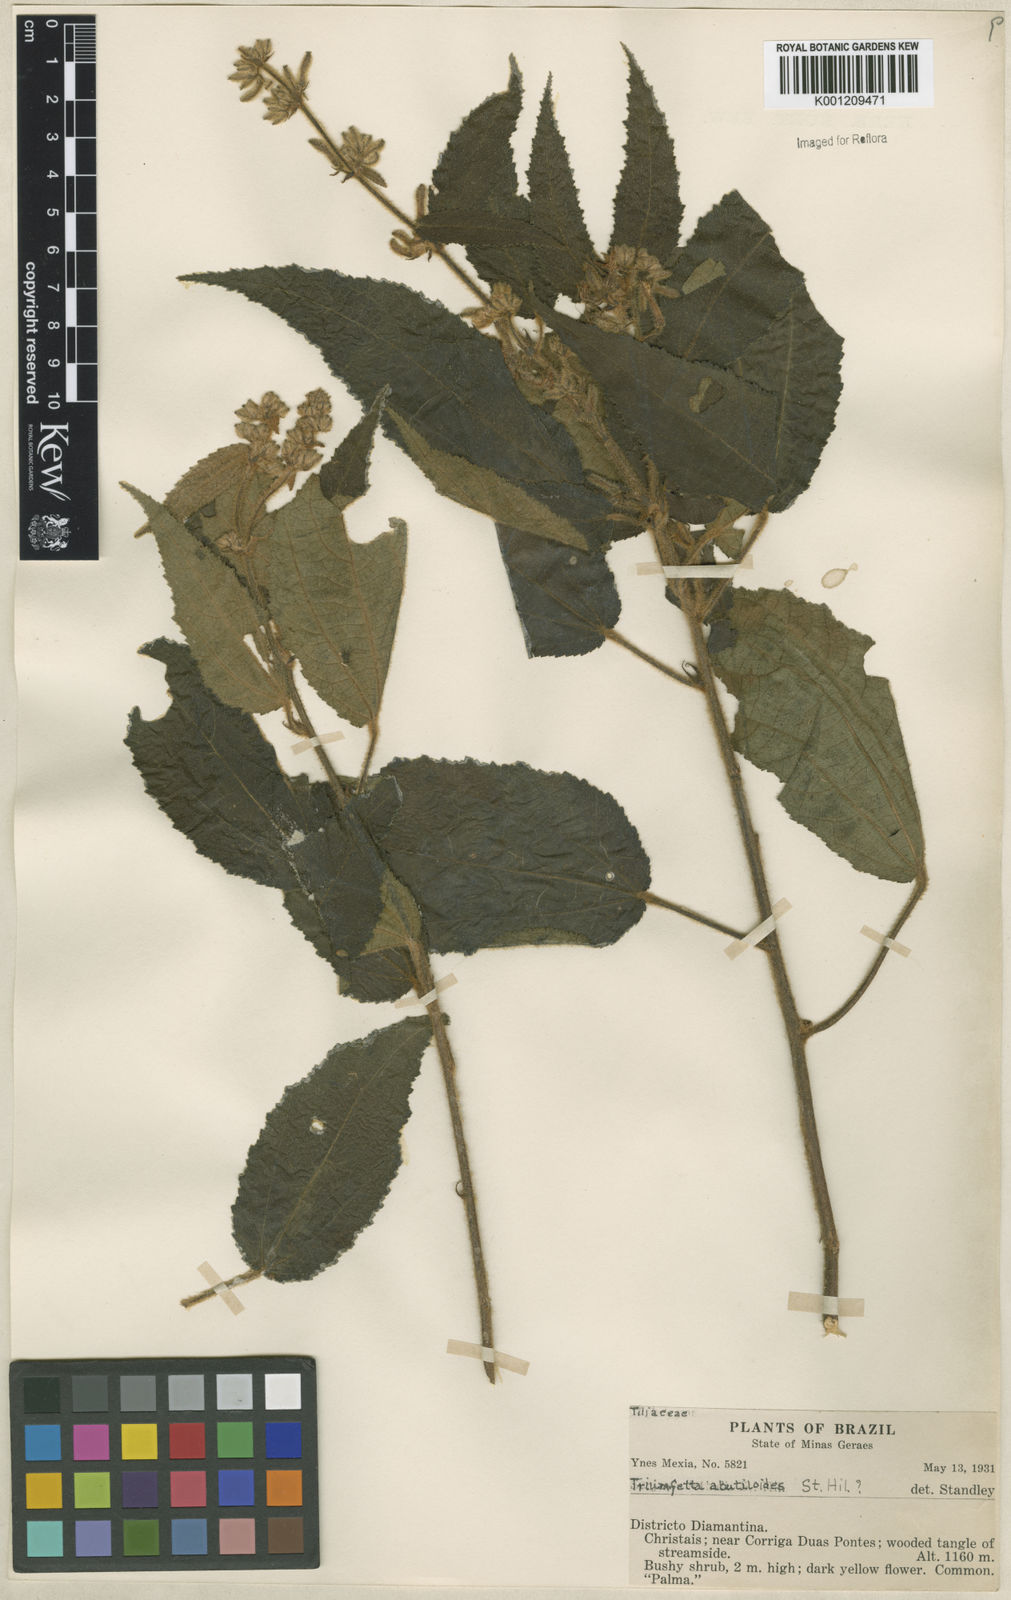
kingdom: Plantae
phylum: Tracheophyta
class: Magnoliopsida
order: Malvales
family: Malvaceae
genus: Triumfetta
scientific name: Triumfetta abutiloides
